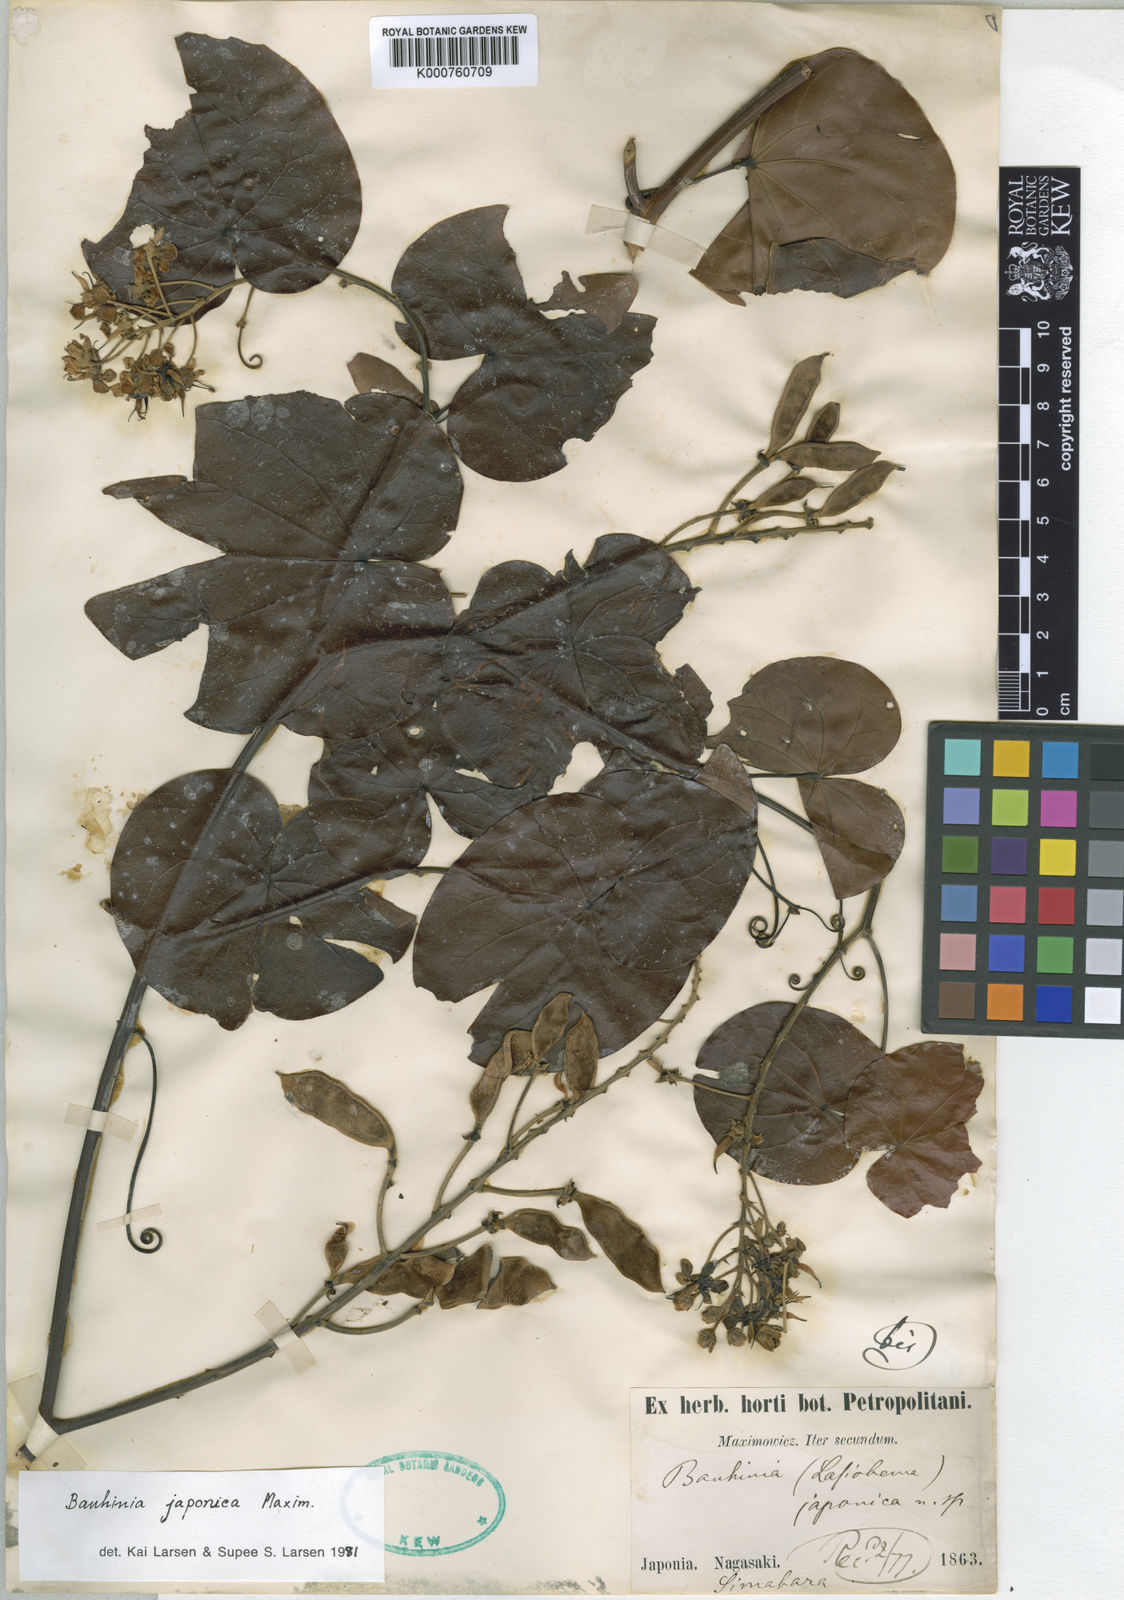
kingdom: Plantae
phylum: Tracheophyta
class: Magnoliopsida
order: Fabales
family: Fabaceae
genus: Phanera
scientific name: Phanera japonica
